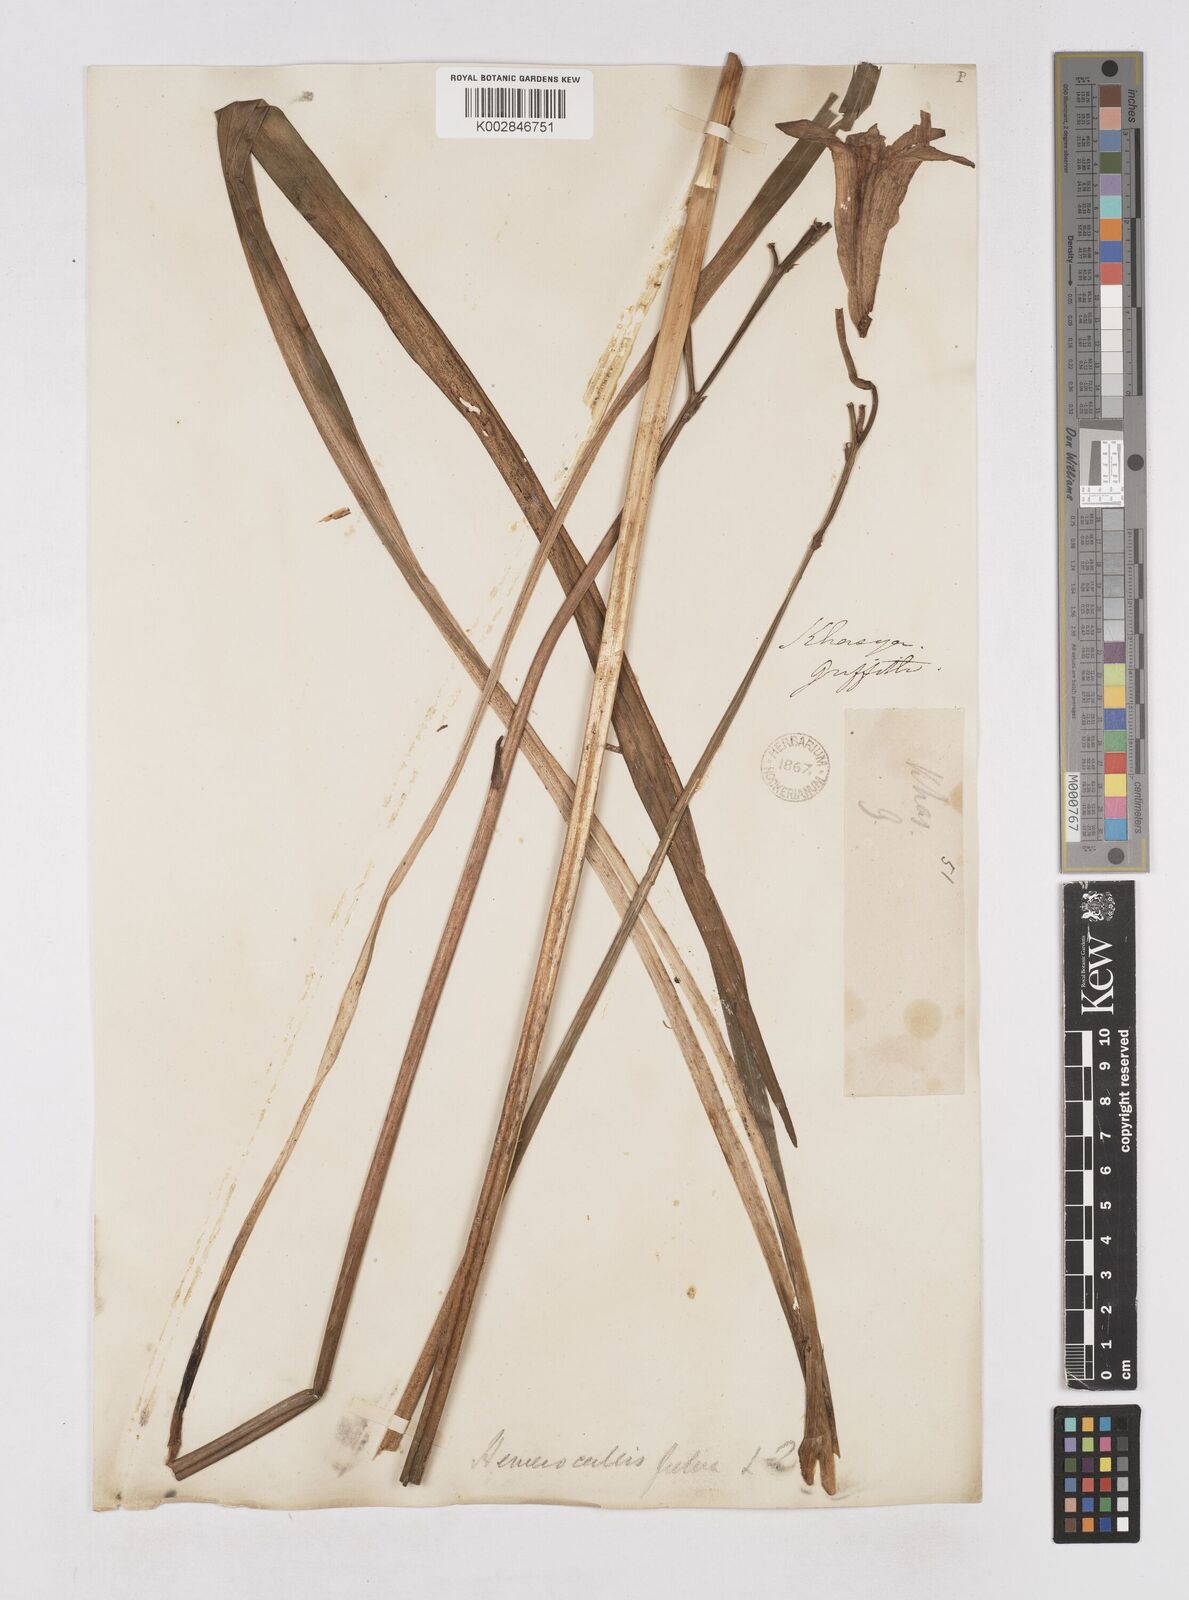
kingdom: Plantae
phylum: Tracheophyta
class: Liliopsida
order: Asparagales
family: Asphodelaceae
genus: Hemerocallis
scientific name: Hemerocallis fulva
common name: Orange day-lily
